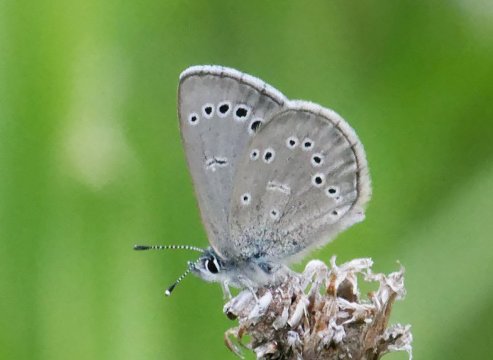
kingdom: Animalia
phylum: Arthropoda
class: Insecta
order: Lepidoptera
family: Lycaenidae
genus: Glaucopsyche
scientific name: Glaucopsyche lygdamus
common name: Silvery Blue
